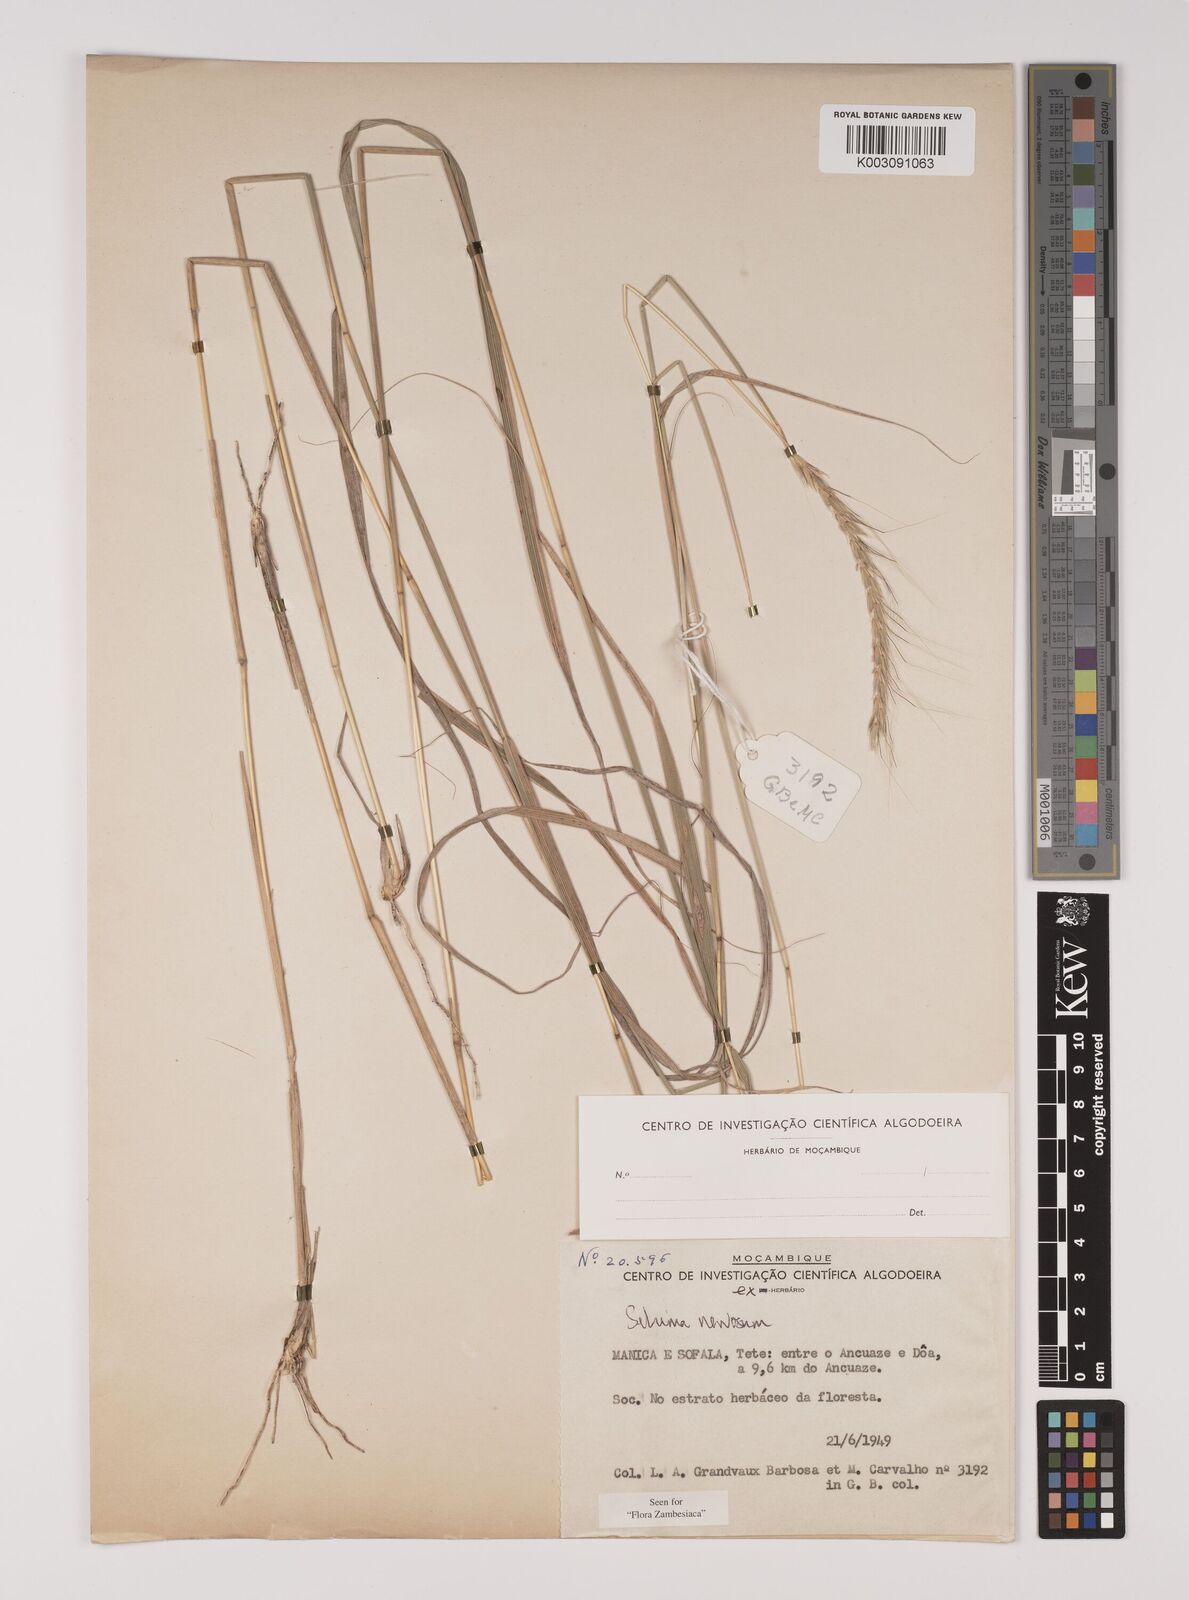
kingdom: Plantae
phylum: Tracheophyta
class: Liliopsida
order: Poales
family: Poaceae
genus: Sehima
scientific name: Sehima nervosa
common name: Rat-tail grass
